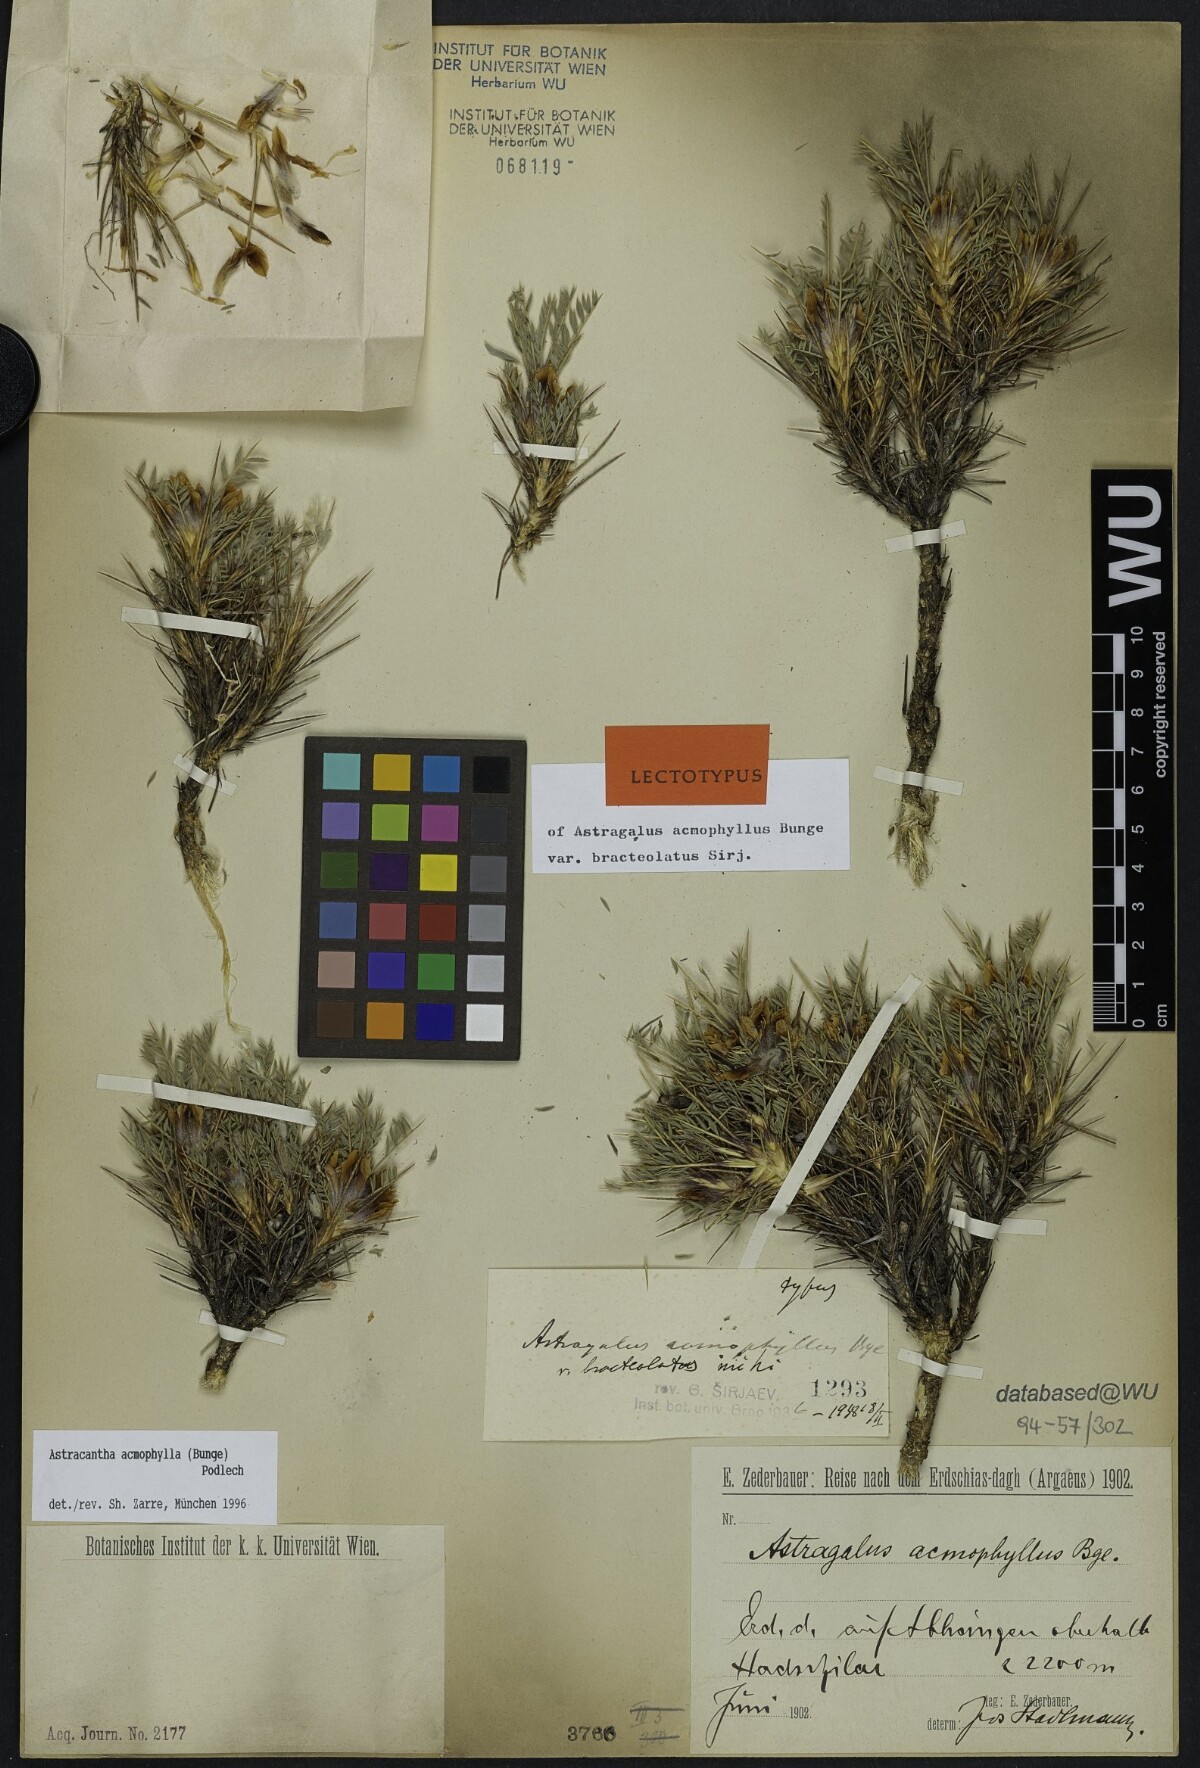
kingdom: Plantae
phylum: Tracheophyta
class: Magnoliopsida
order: Fabales
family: Fabaceae
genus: Astragalus
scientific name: Astragalus acmophyllus
